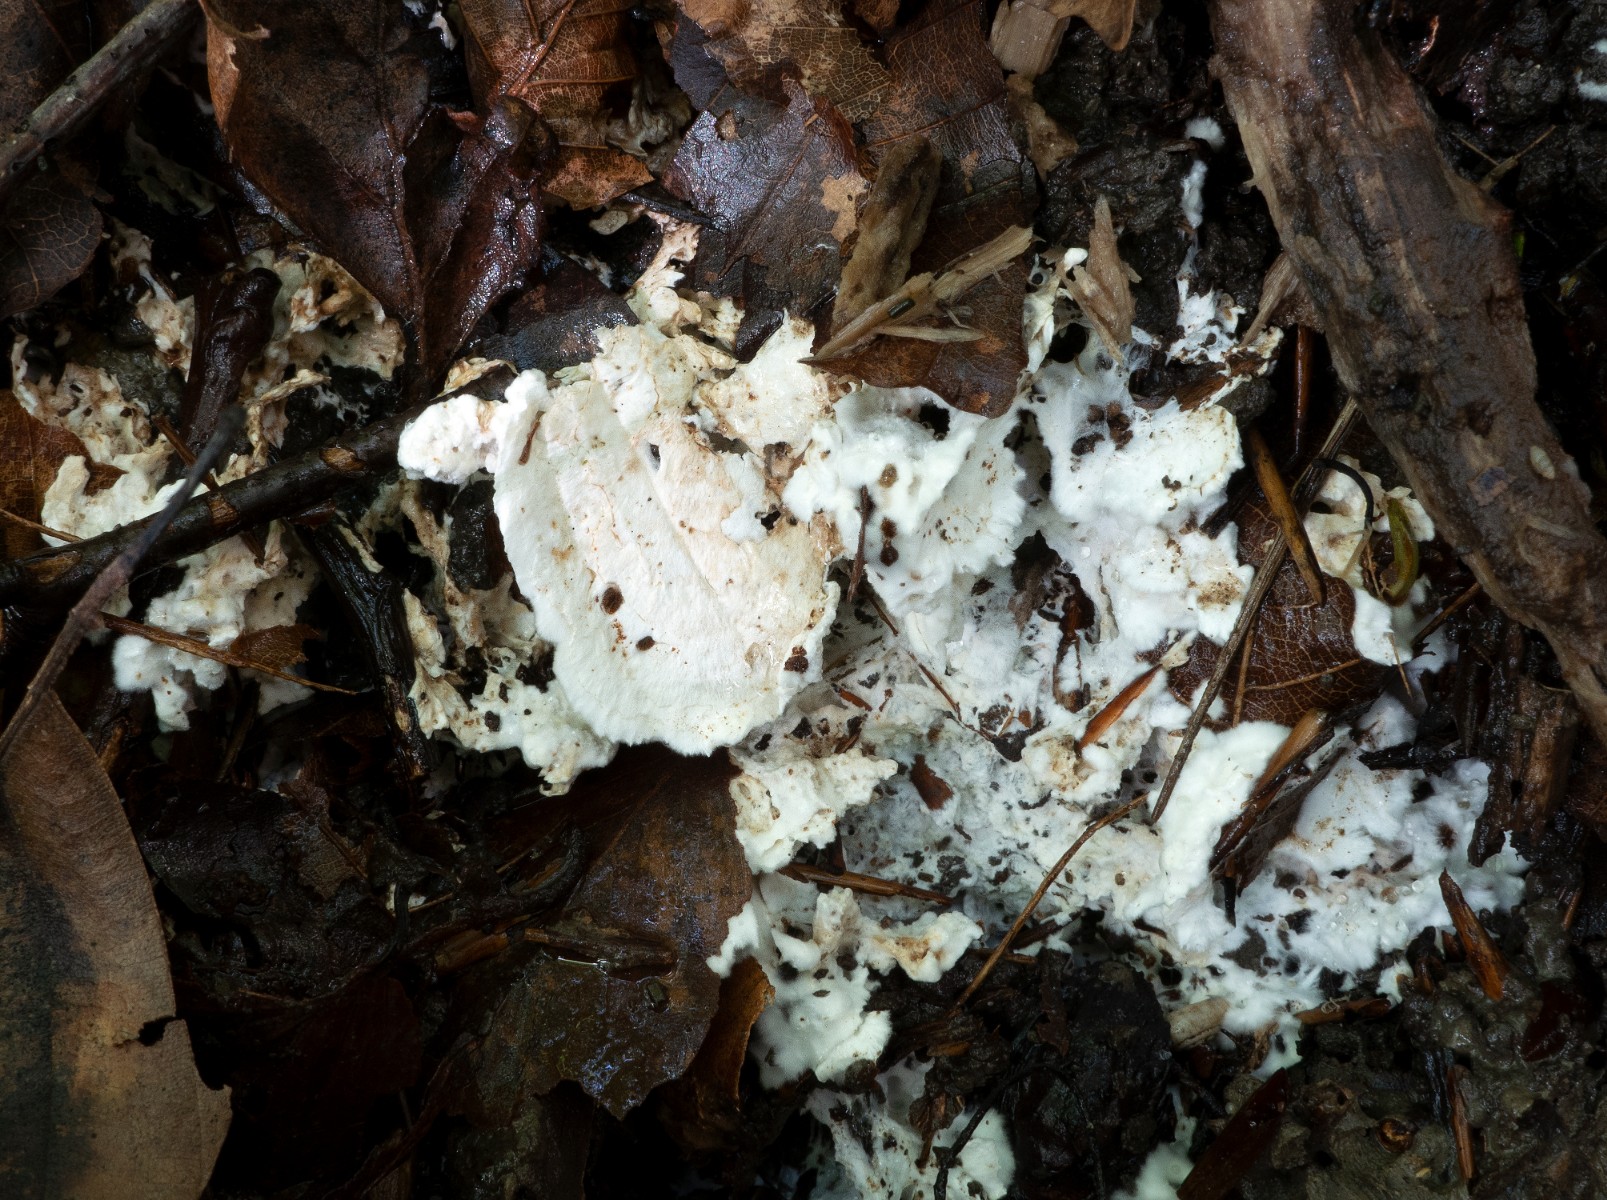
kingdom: Fungi
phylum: Basidiomycota
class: Agaricomycetes
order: Trechisporales
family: Sistotremataceae
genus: Trechispora
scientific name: Trechispora fastidiosa
